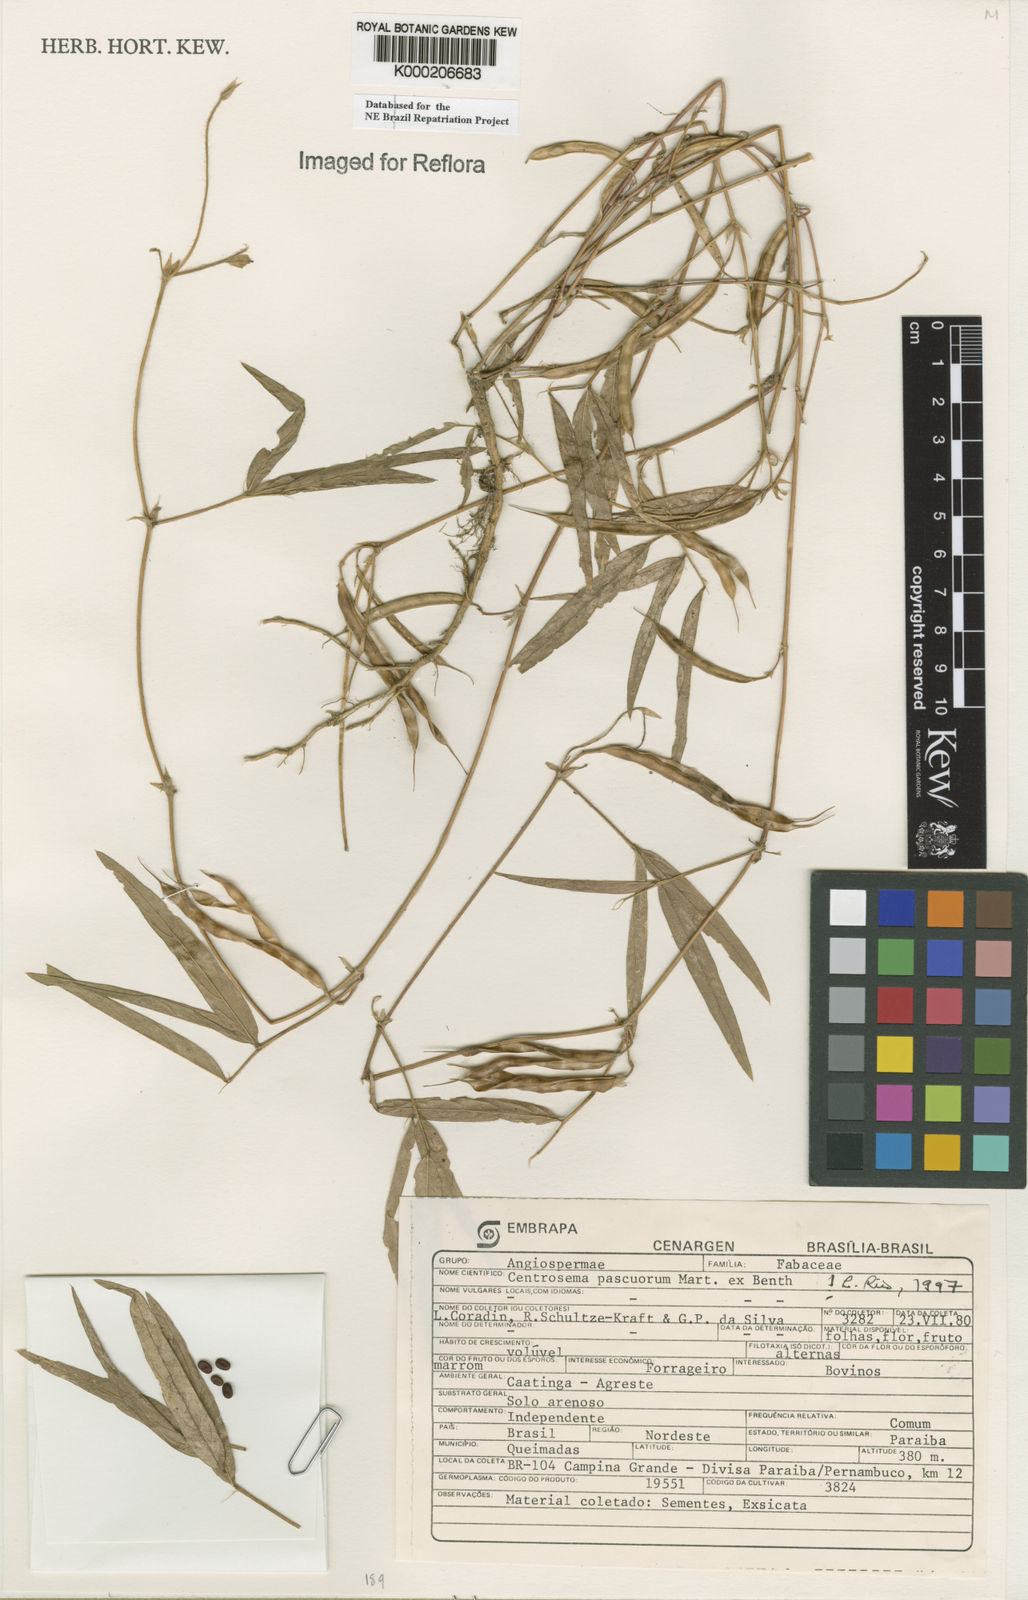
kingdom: Plantae
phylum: Tracheophyta
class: Magnoliopsida
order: Fabales
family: Fabaceae
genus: Centrosema
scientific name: Centrosema pascuorum
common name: Centurion
